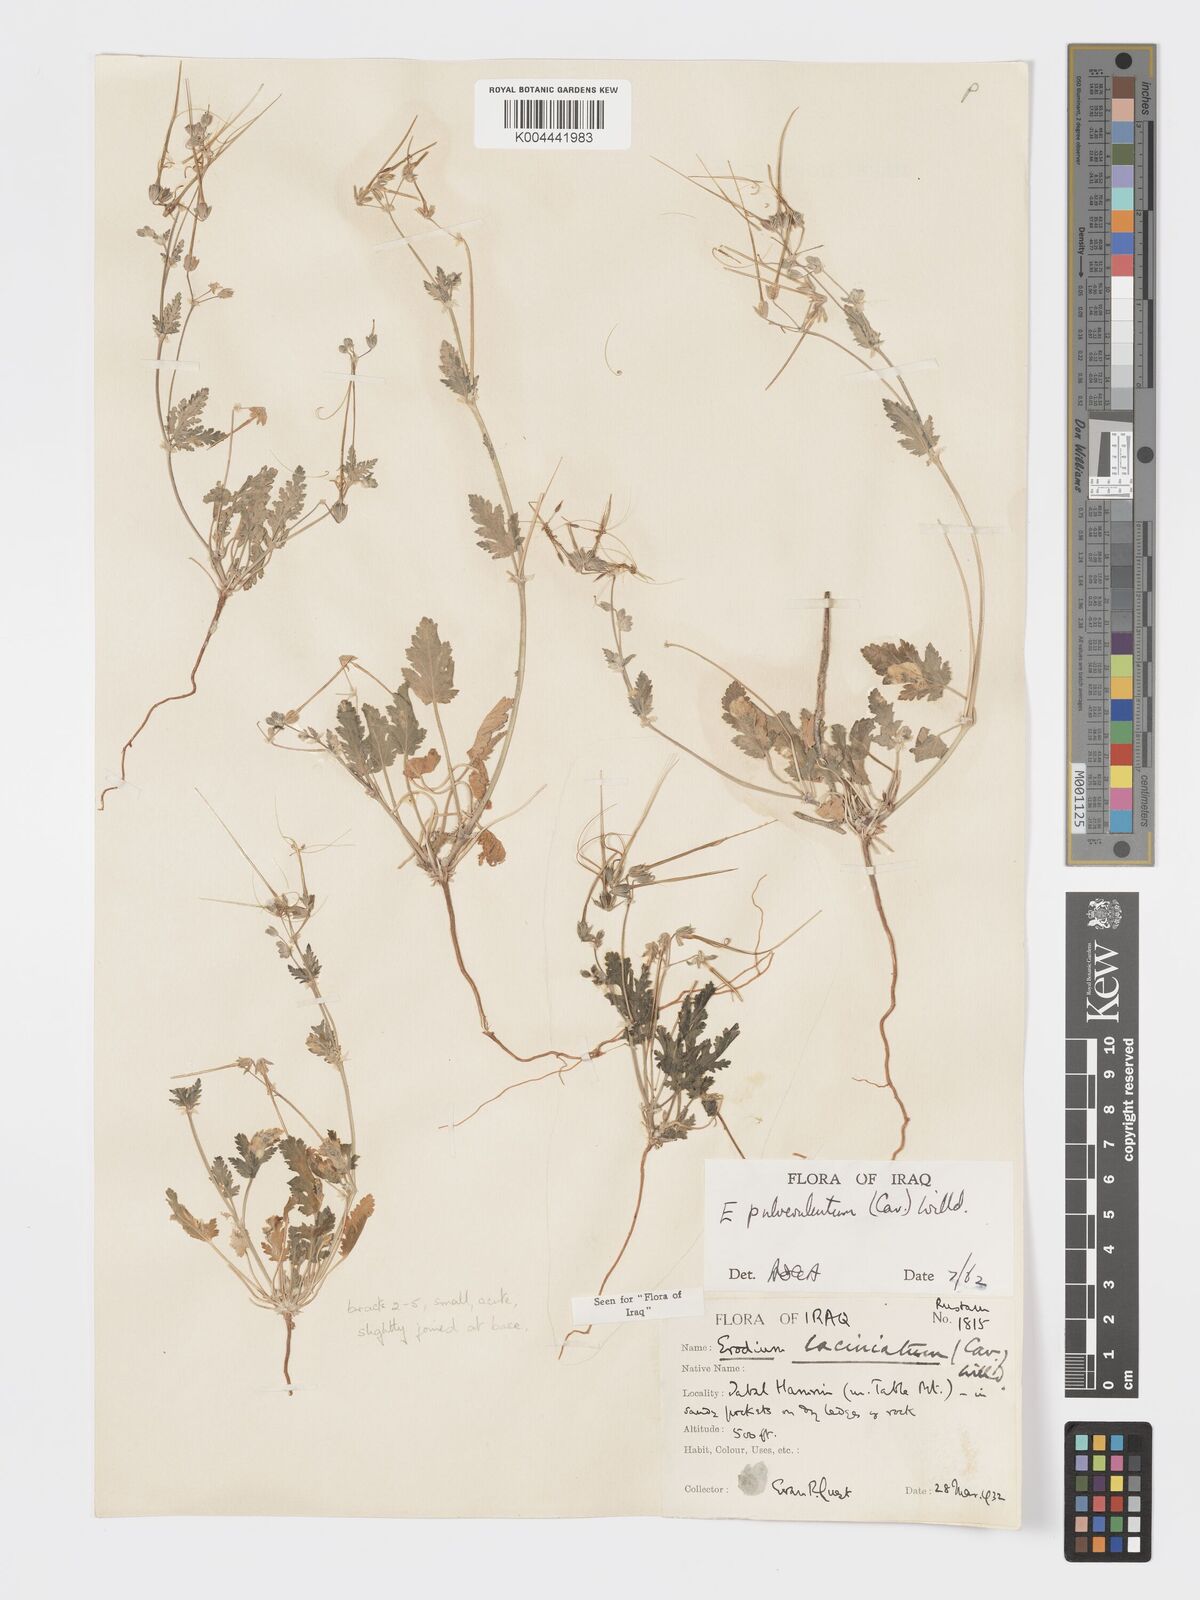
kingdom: Plantae
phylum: Tracheophyta
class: Magnoliopsida
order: Geraniales
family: Geraniaceae
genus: Erodium
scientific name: Erodium laciniatum
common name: Cutleaf stork's bill
